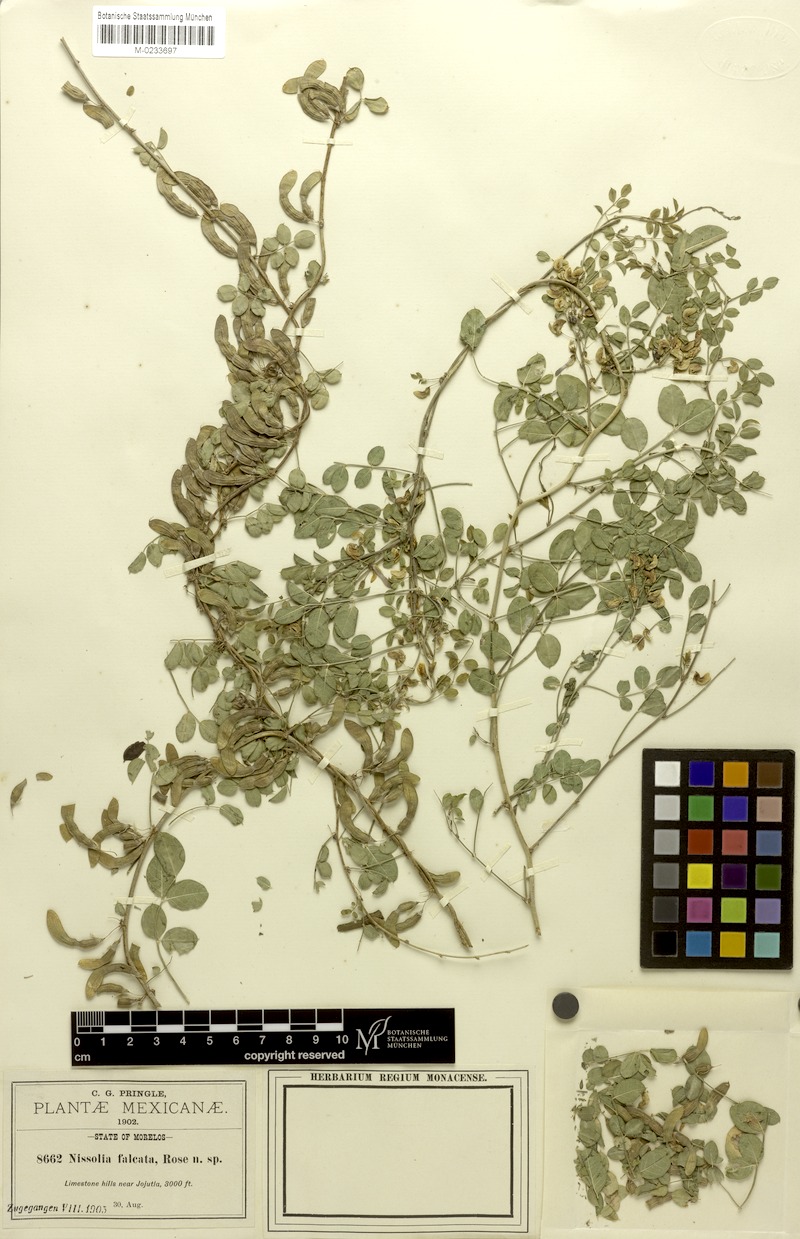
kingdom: Plantae
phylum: Tracheophyta
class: Magnoliopsida
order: Fabales
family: Fabaceae
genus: Nissolia
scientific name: Nissolia pringlei
